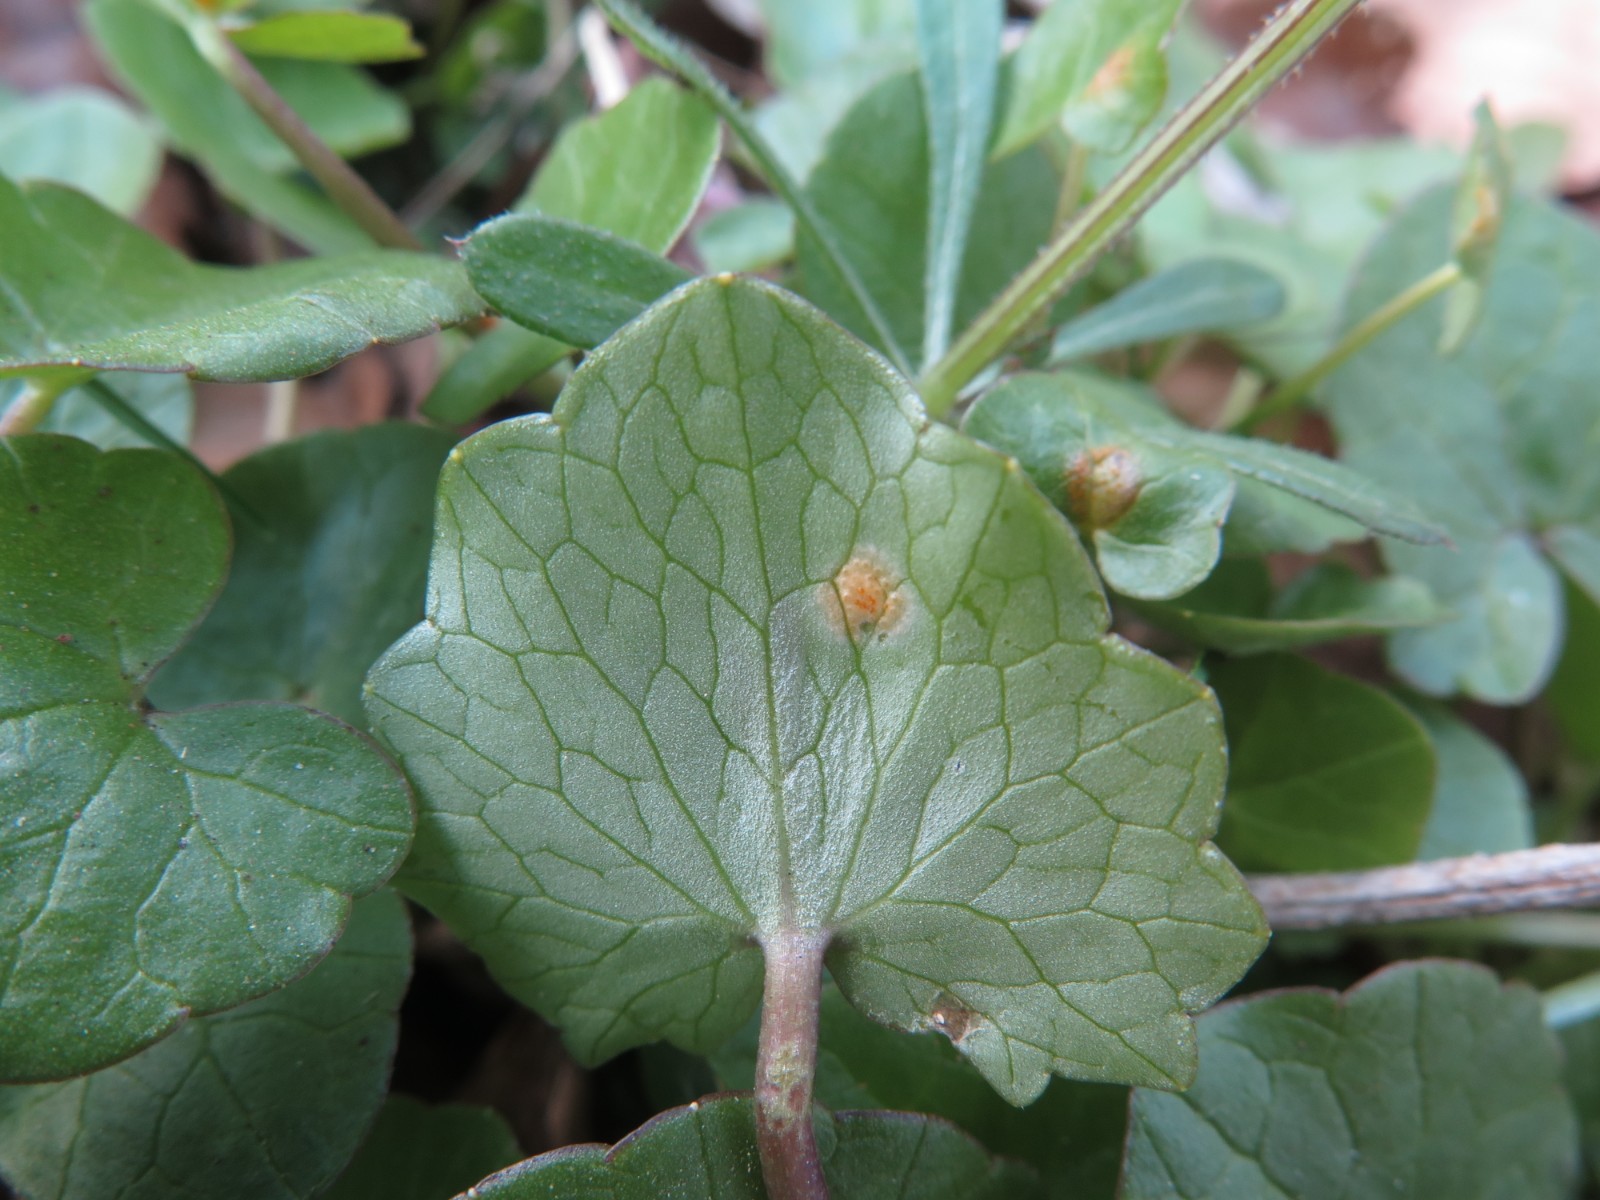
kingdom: Fungi
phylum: Basidiomycota
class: Pucciniomycetes
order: Pucciniales
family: Pucciniaceae
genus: Uromyces
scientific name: Uromyces dactylidis
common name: ranunkel-encellerust
